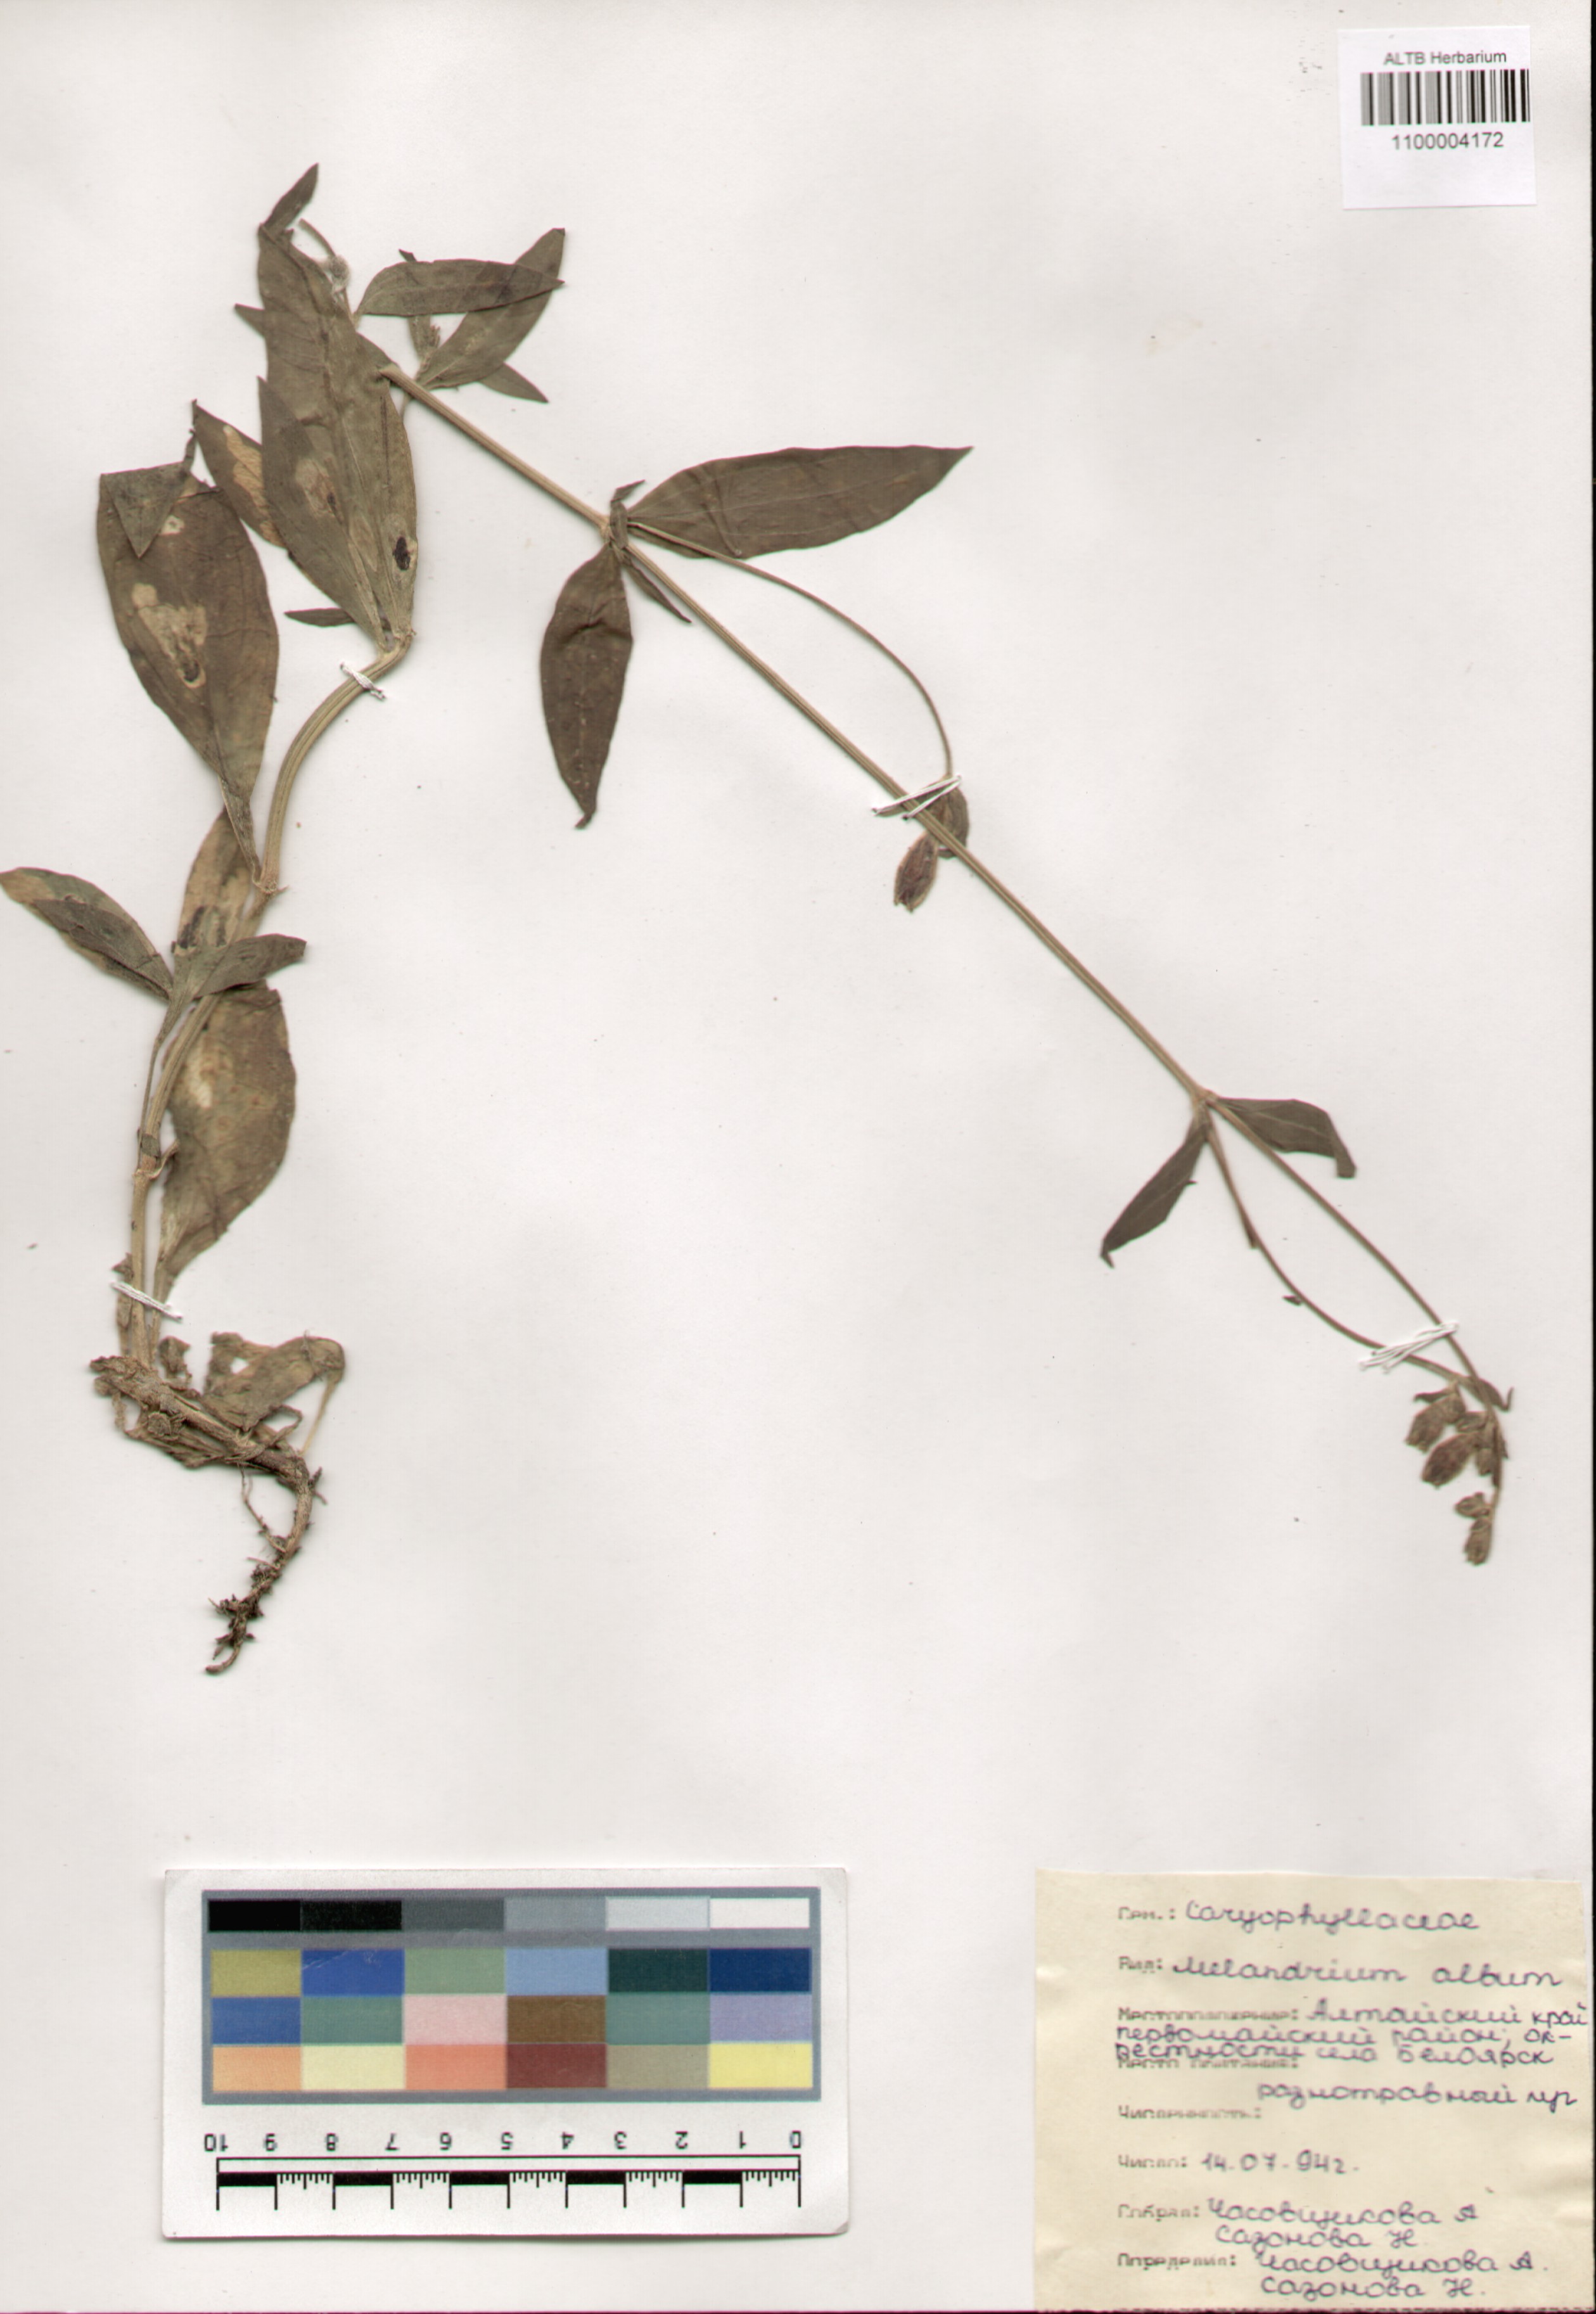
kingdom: Plantae
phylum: Tracheophyta
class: Magnoliopsida
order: Caryophyllales
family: Caryophyllaceae
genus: Silene
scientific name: Silene latifolia
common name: White campion
